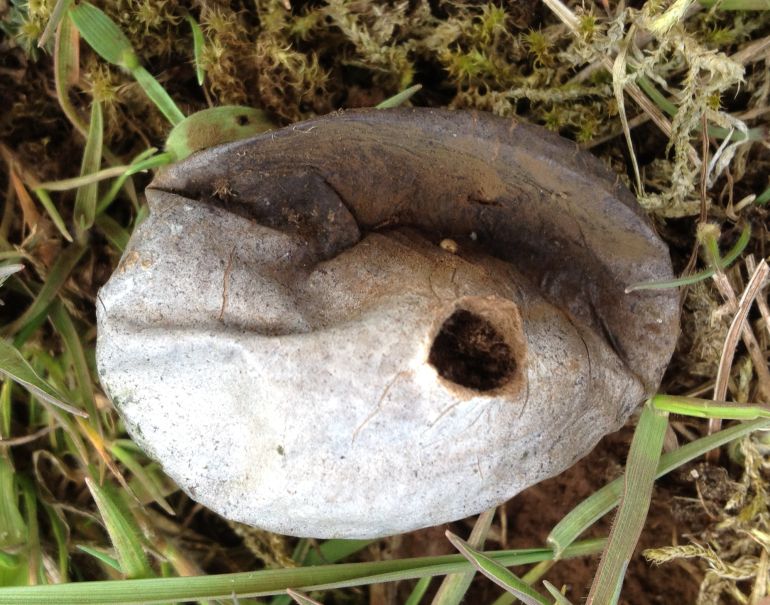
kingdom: Fungi
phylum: Basidiomycota
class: Agaricomycetes
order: Agaricales
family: Lycoperdaceae
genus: Bovista
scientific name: Bovista plumbea
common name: blygrå bovist
